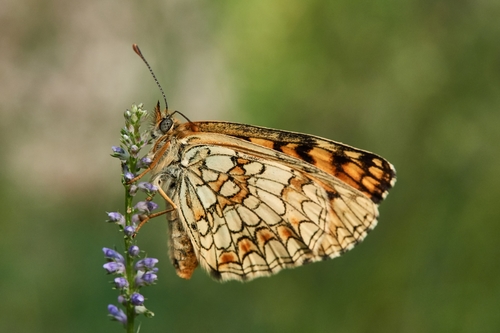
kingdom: Animalia
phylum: Arthropoda
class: Insecta
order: Lepidoptera
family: Nymphalidae
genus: Mellicta
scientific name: Mellicta athalia
